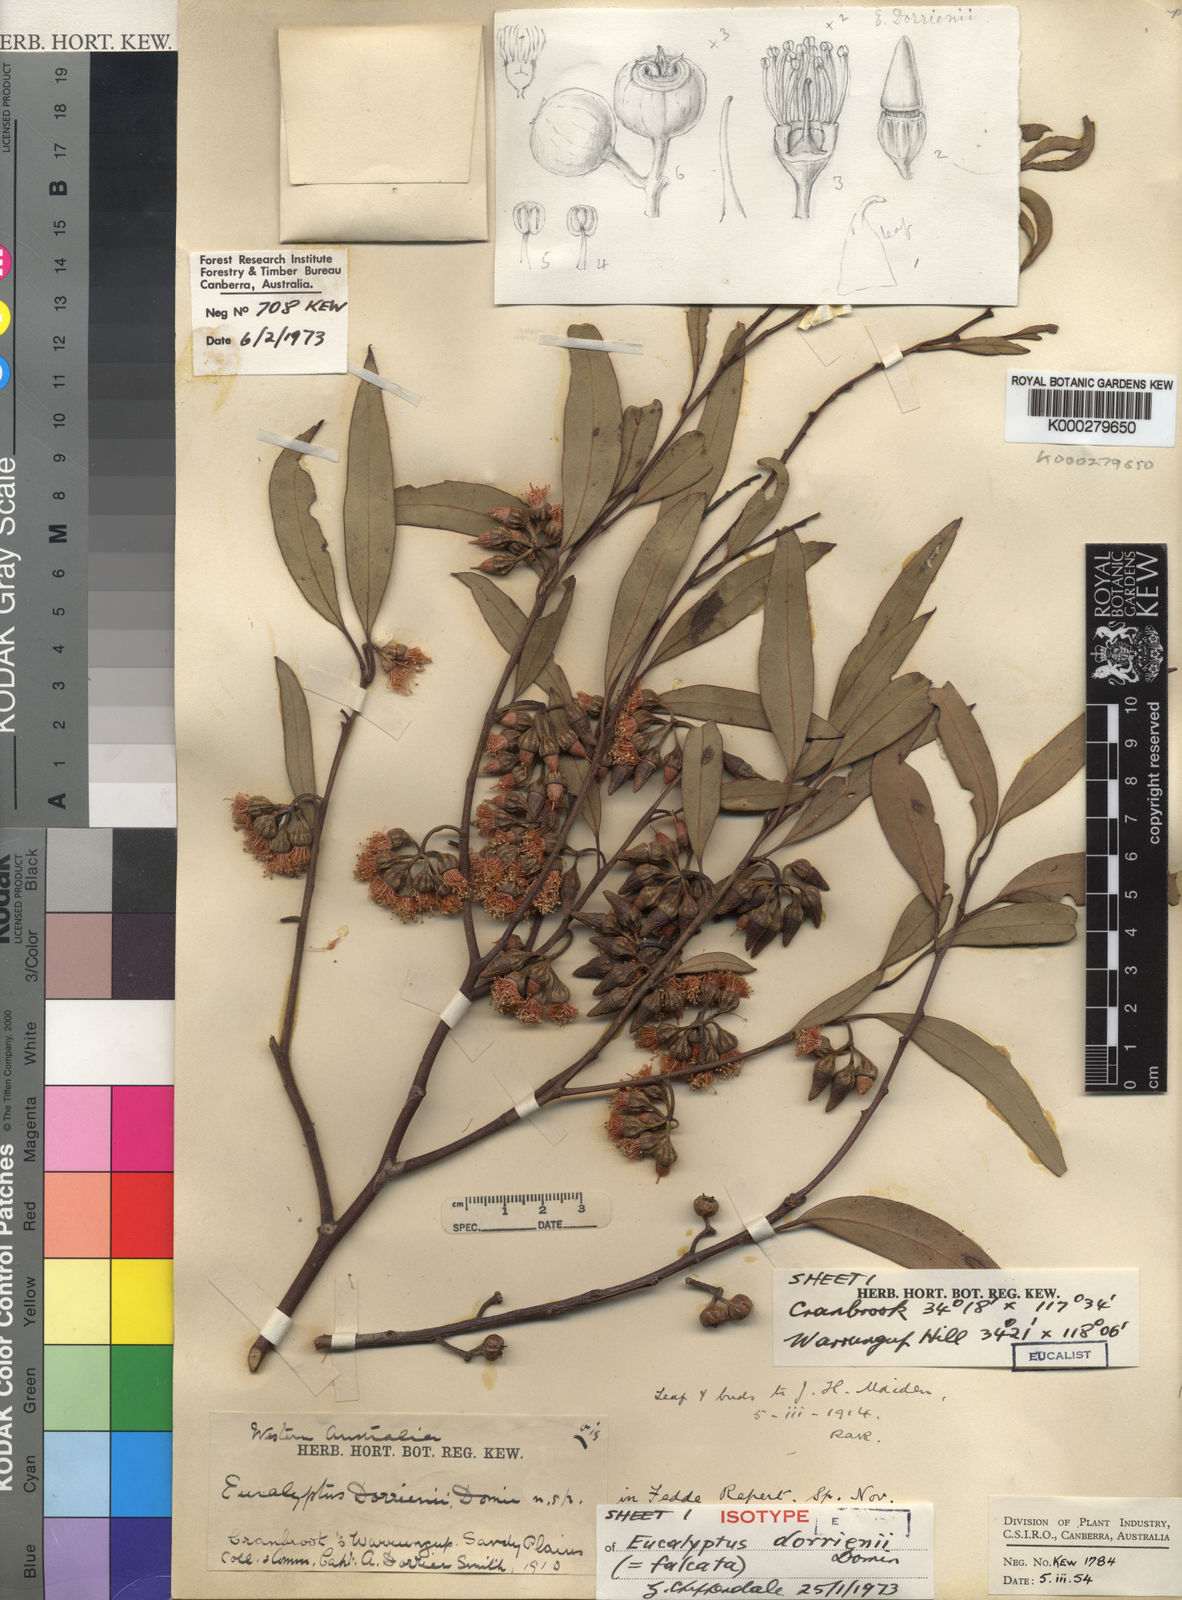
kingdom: Plantae
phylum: Tracheophyta
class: Magnoliopsida
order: Myrtales
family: Myrtaceae
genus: Eucalyptus
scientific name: Eucalyptus falcata
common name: Silver mallet
